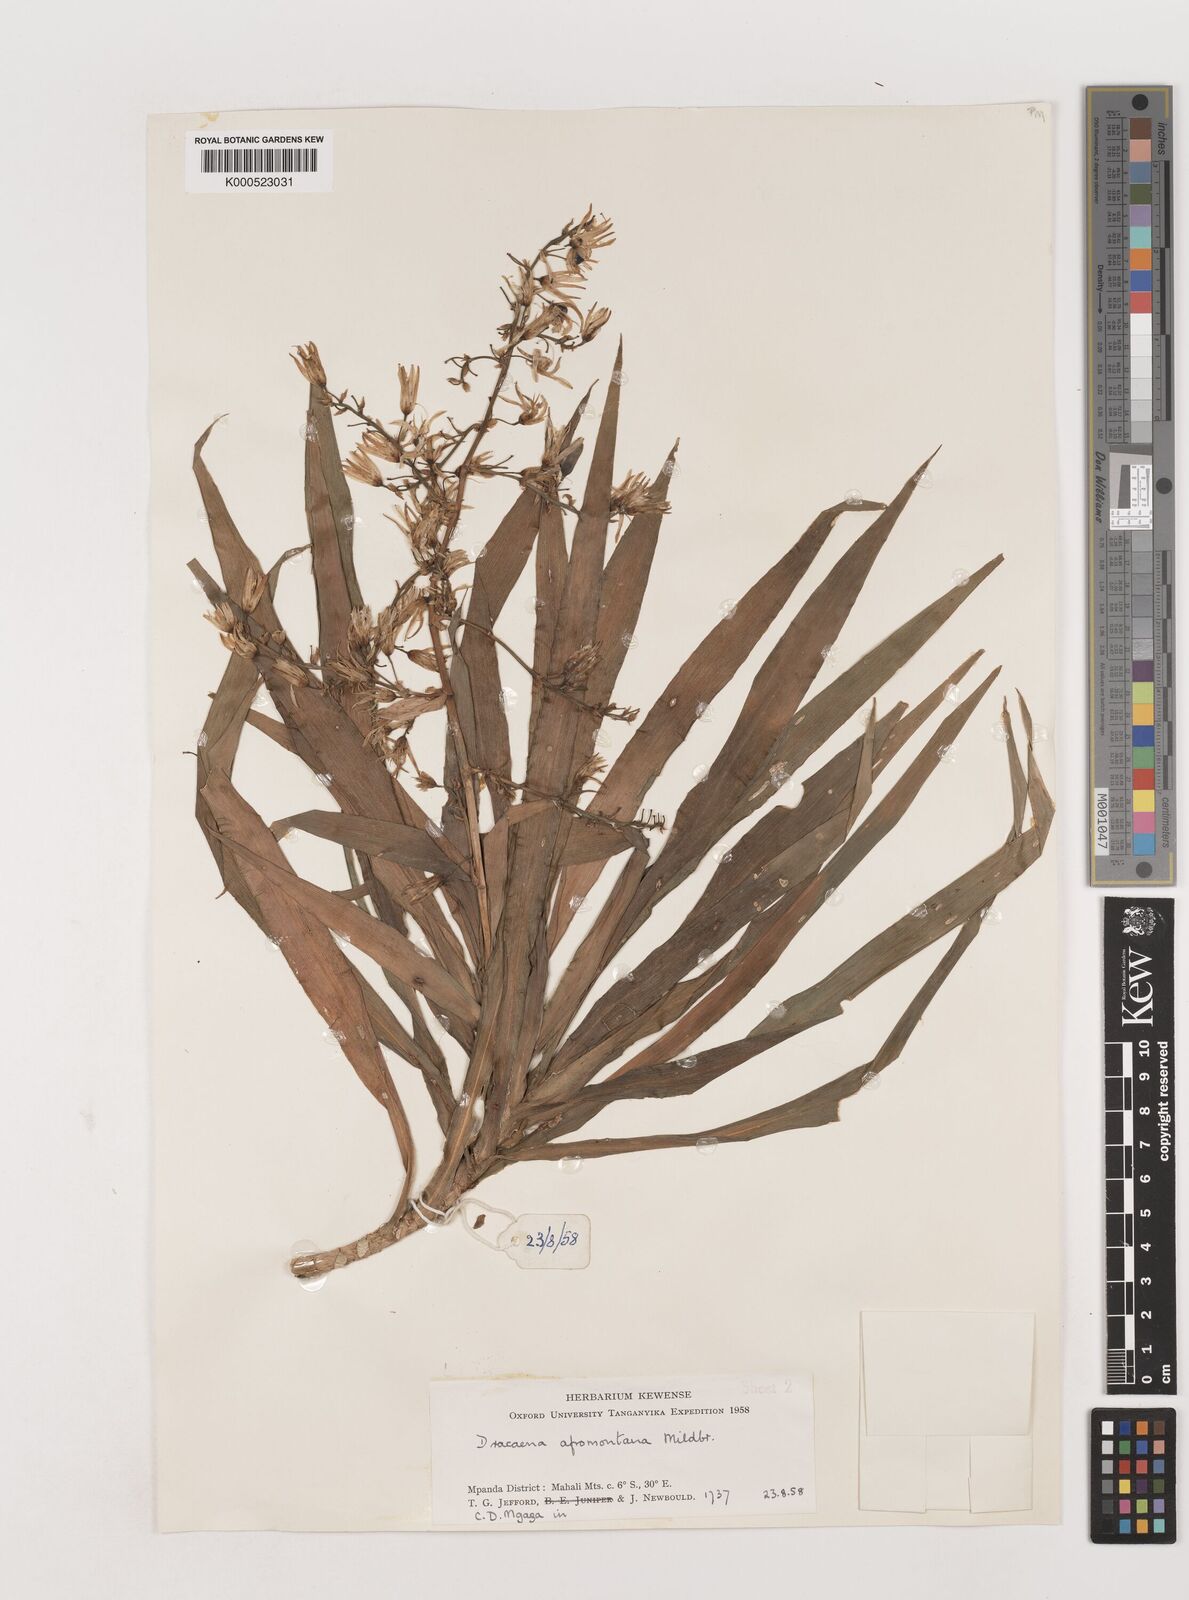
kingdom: Plantae
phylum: Tracheophyta
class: Liliopsida
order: Asparagales
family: Asparagaceae
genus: Dracaena
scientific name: Dracaena afromontana
